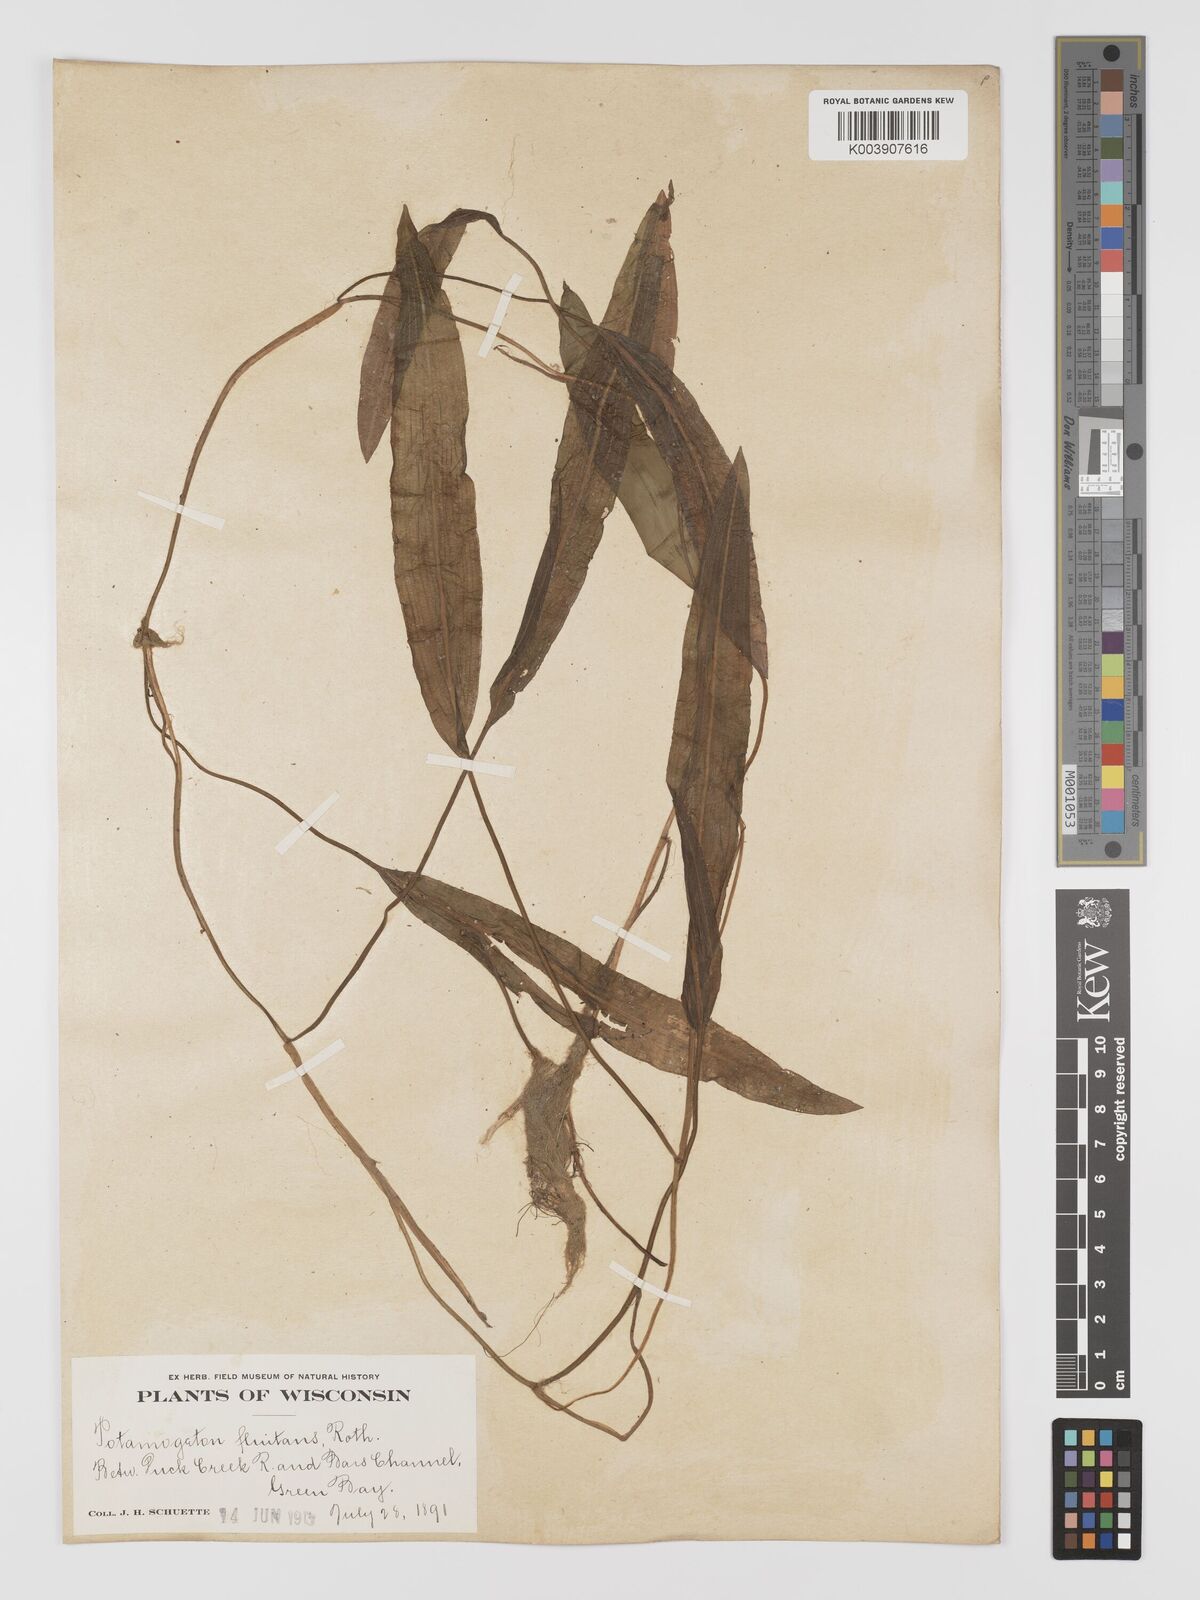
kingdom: Plantae
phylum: Tracheophyta
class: Liliopsida
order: Alismatales
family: Potamogetonaceae
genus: Potamogeton
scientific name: Potamogeton nodosus
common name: Loddon pondweed
